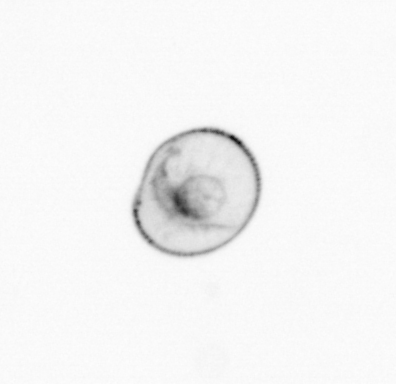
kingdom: Chromista
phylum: Myzozoa
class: Dinophyceae
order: Noctilucales
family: Noctilucaceae
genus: Noctiluca
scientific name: Noctiluca scintillans
